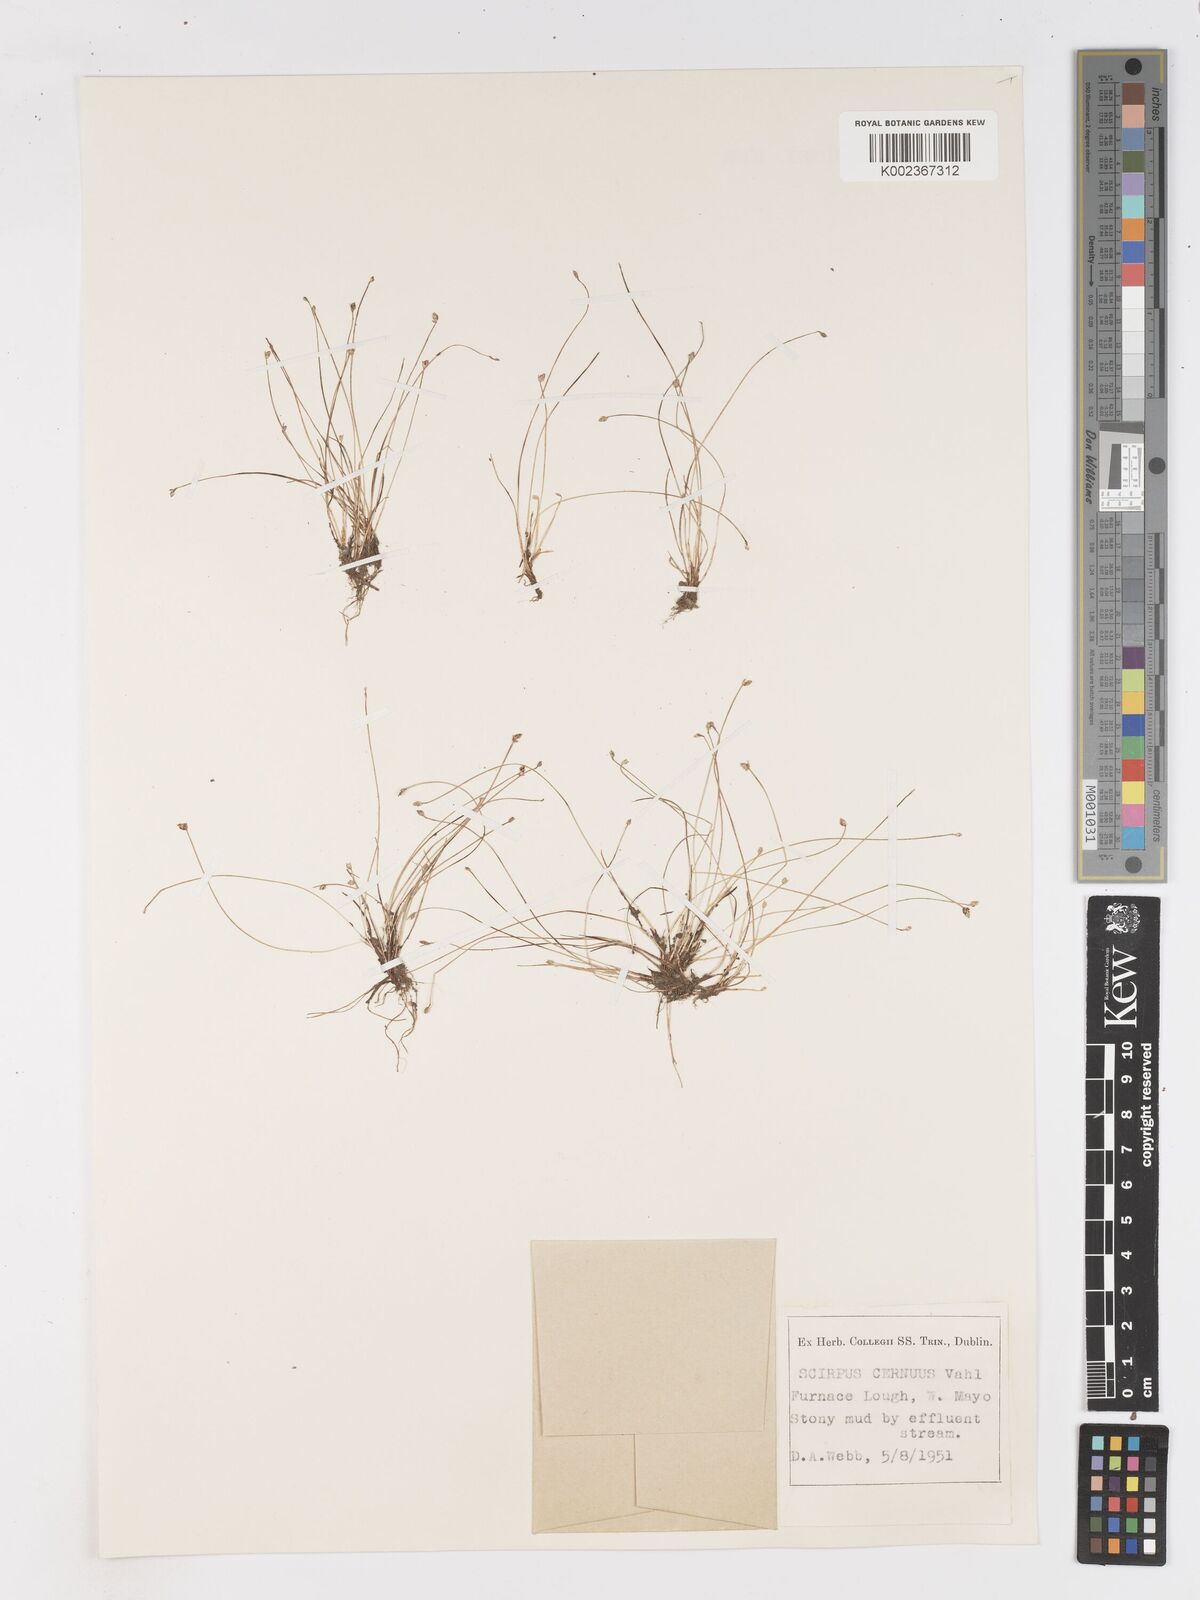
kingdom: Plantae
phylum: Tracheophyta
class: Liliopsida
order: Poales
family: Cyperaceae
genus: Isolepis
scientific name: Isolepis cernua
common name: Slender club-rush
